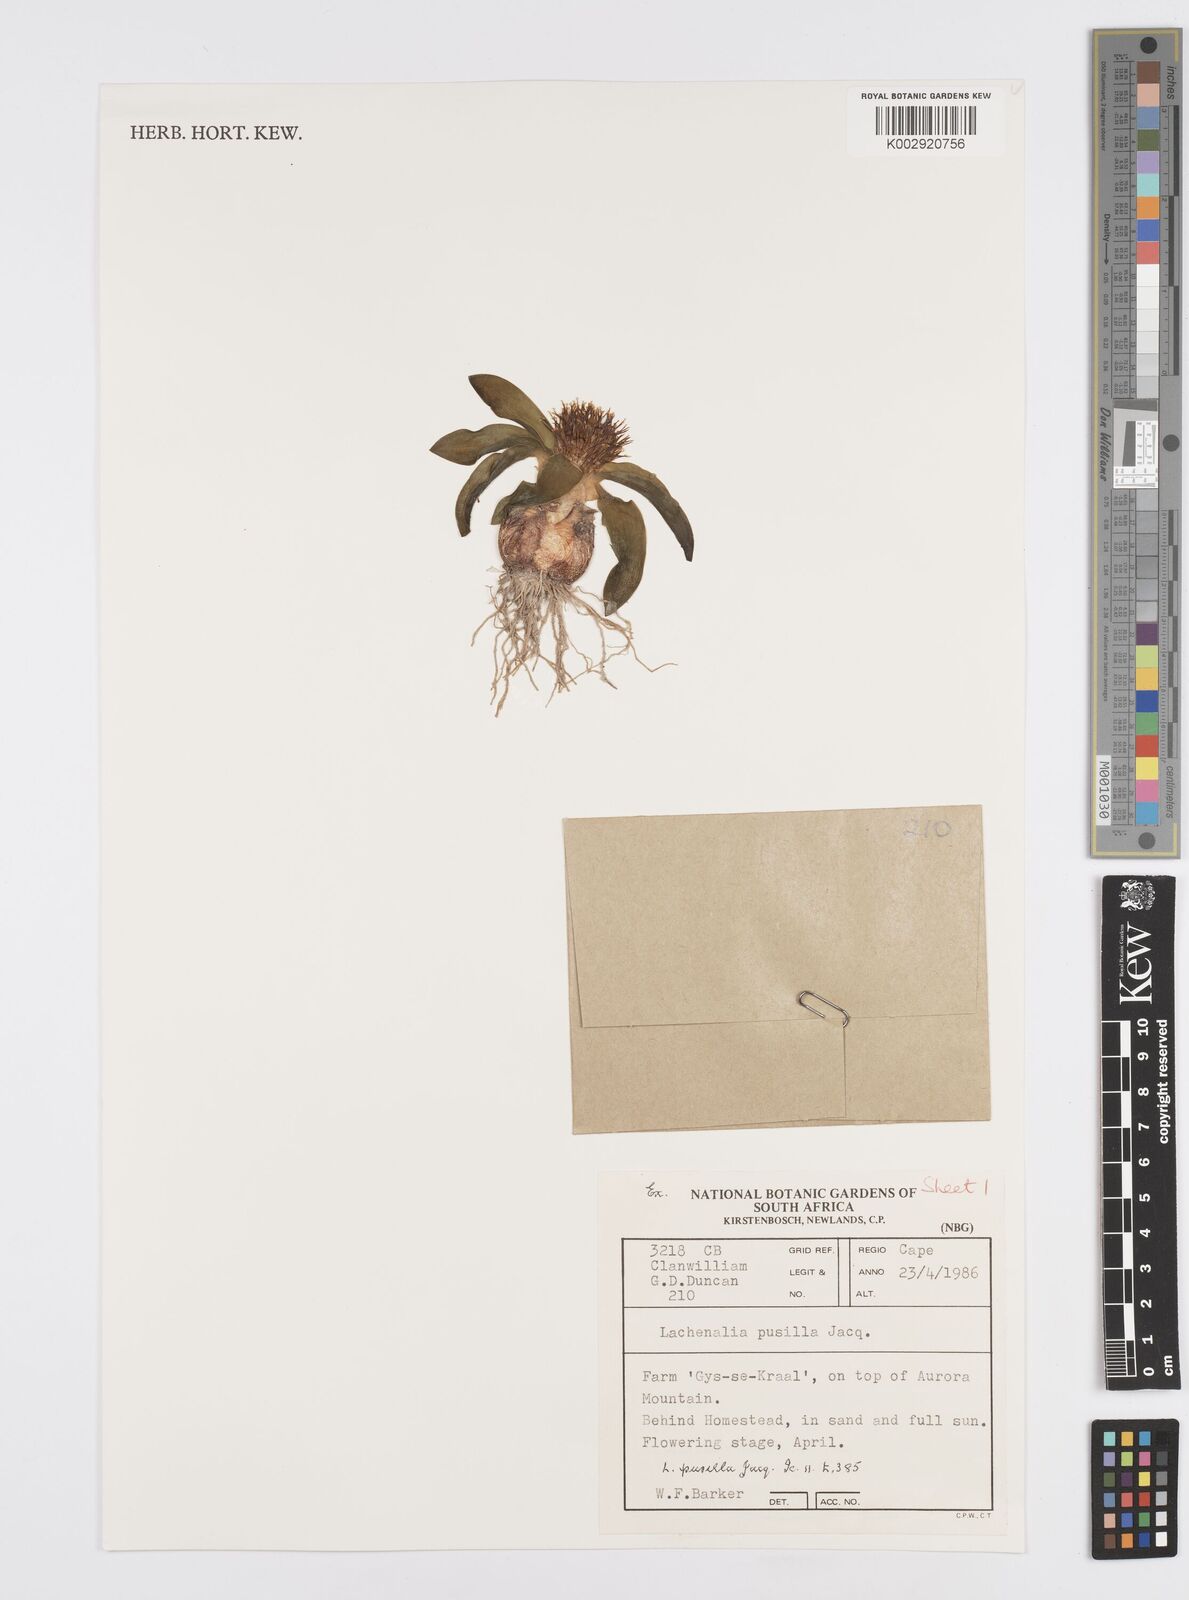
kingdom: Plantae
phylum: Tracheophyta
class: Liliopsida
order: Asparagales
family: Asparagaceae
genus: Lachenalia
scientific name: Lachenalia pusilla
